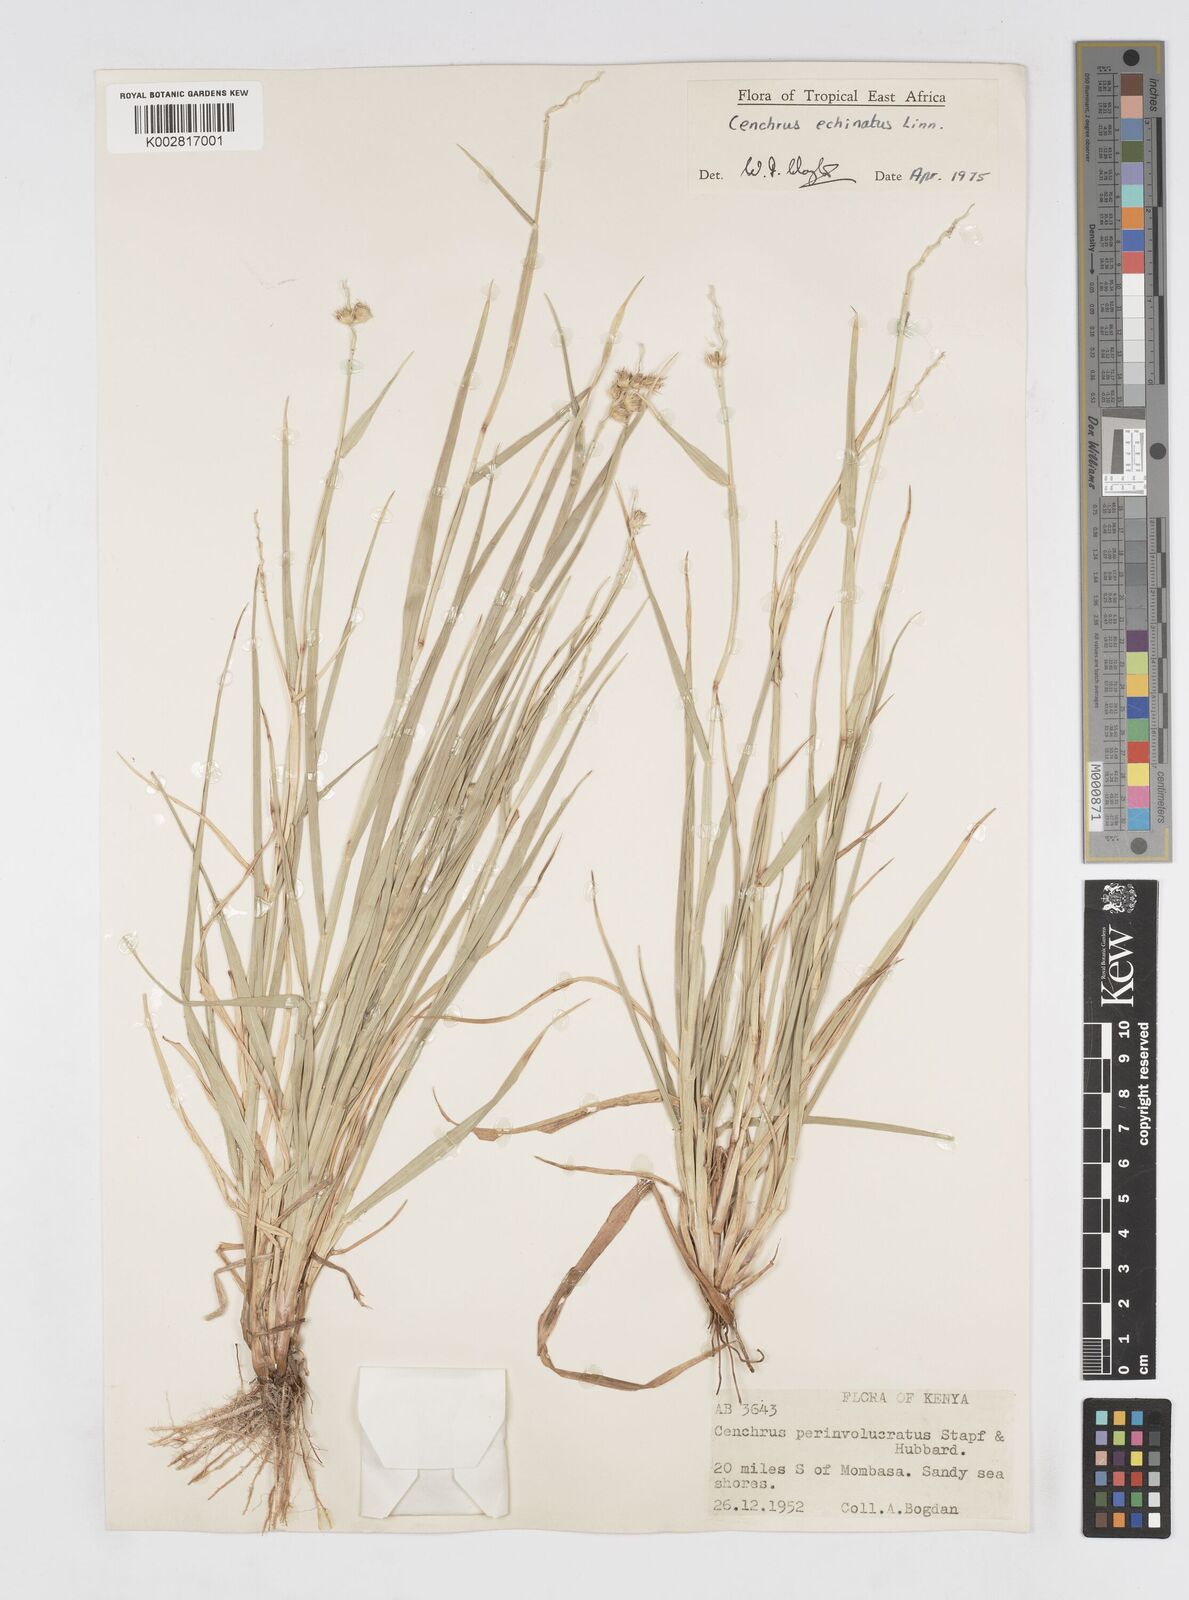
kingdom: Plantae
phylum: Tracheophyta
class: Liliopsida
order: Poales
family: Poaceae
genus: Cenchrus
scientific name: Cenchrus echinatus
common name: Southern sandbur
